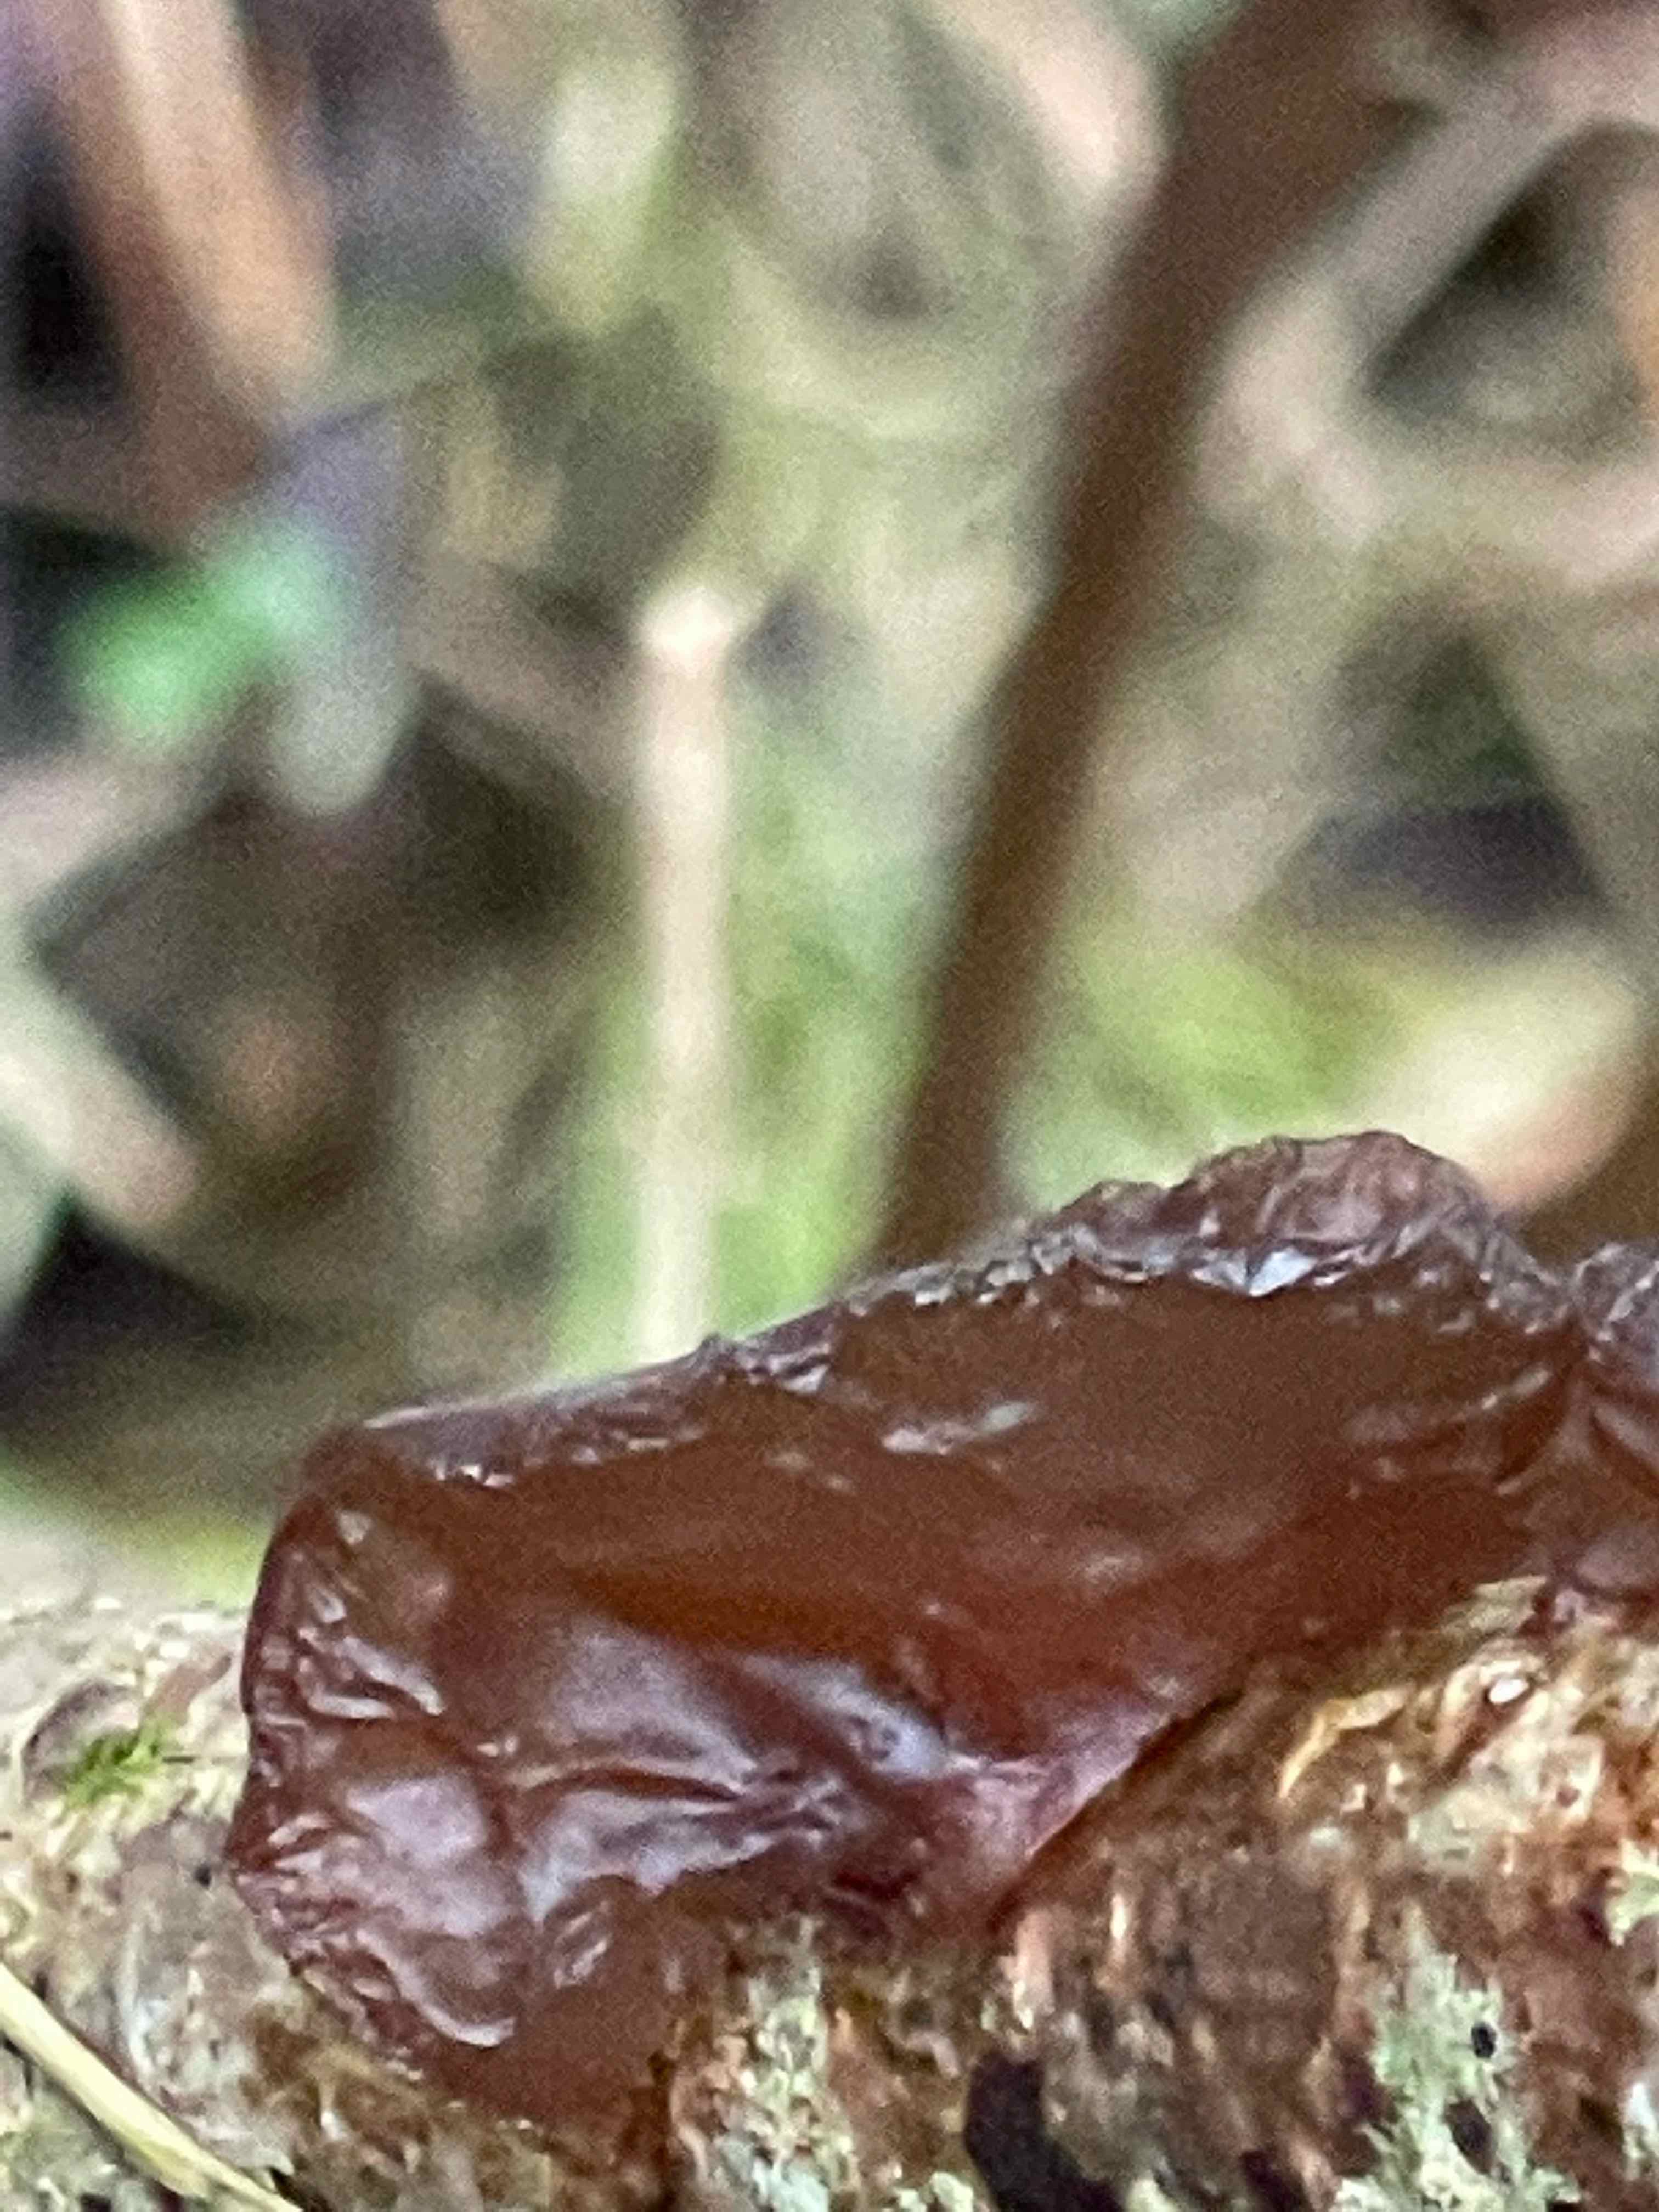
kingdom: Fungi
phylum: Basidiomycota
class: Agaricomycetes
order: Auriculariales
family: Auriculariaceae
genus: Exidia
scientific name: Exidia recisa
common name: pile-bævretop
